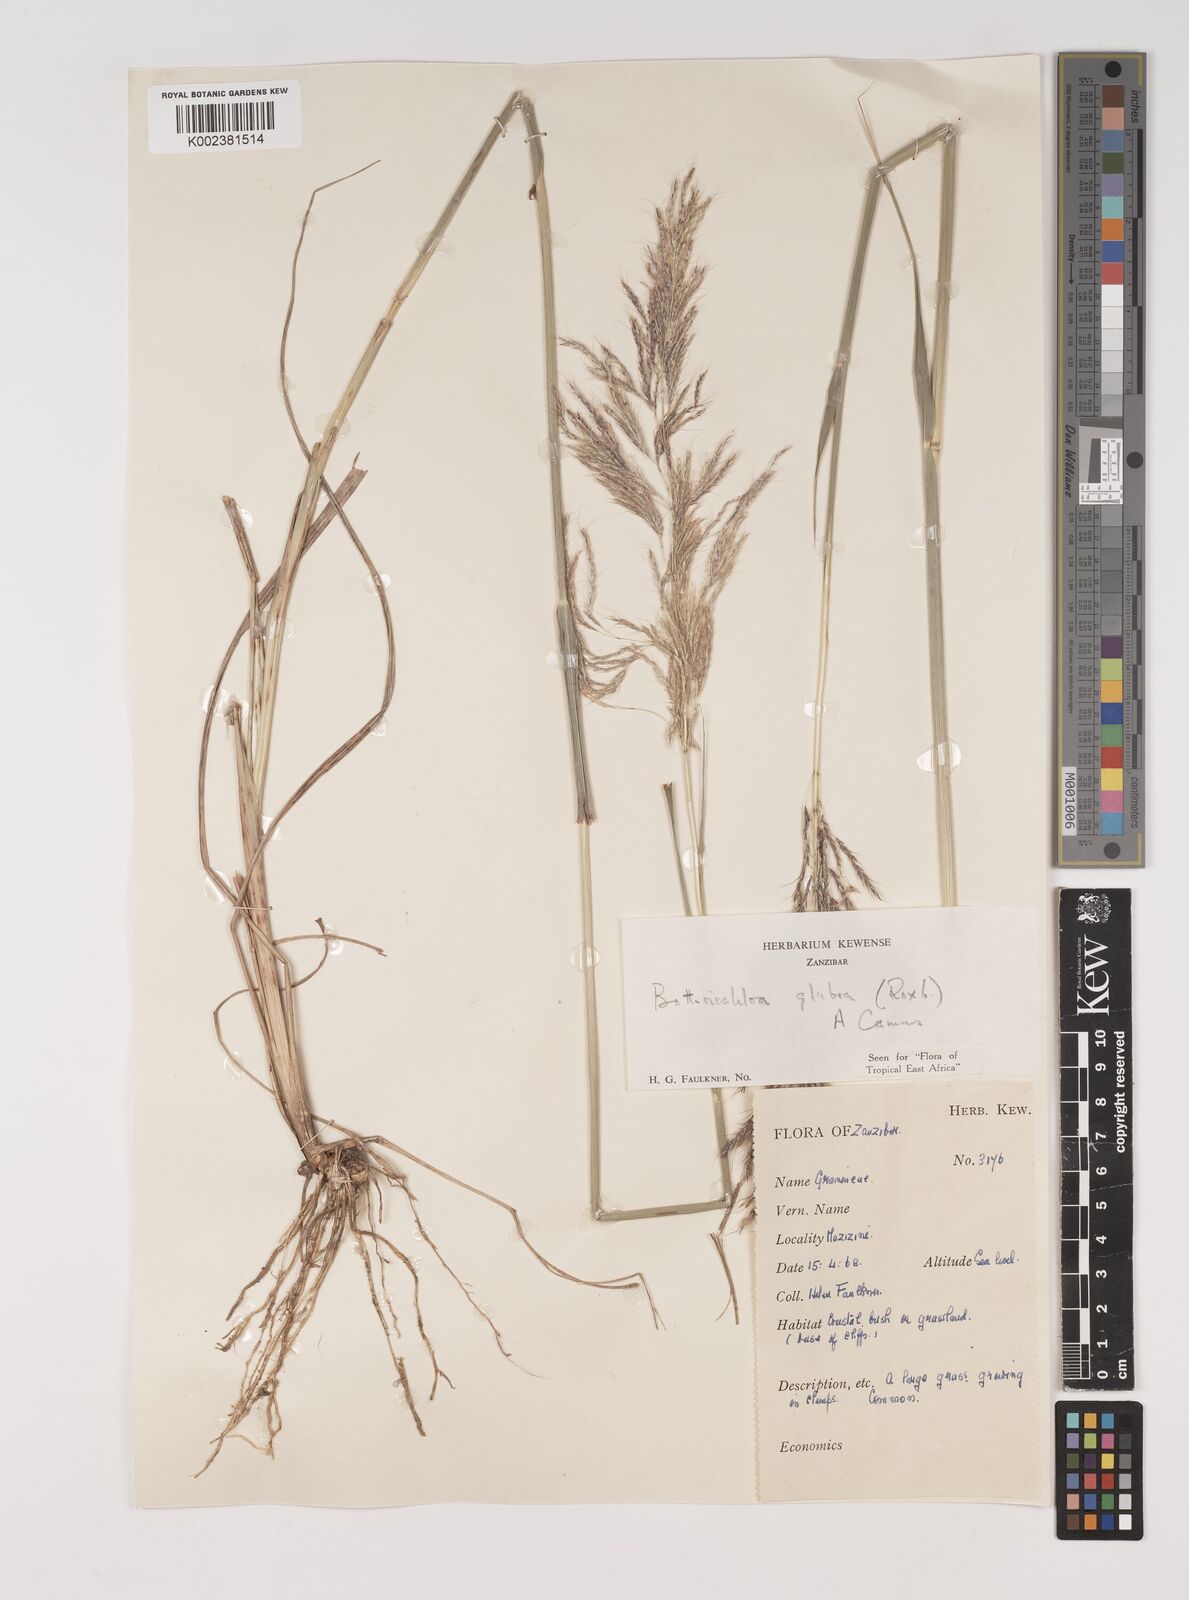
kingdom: Plantae
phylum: Tracheophyta
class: Liliopsida
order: Poales
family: Poaceae
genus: Bothriochloa
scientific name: Bothriochloa
